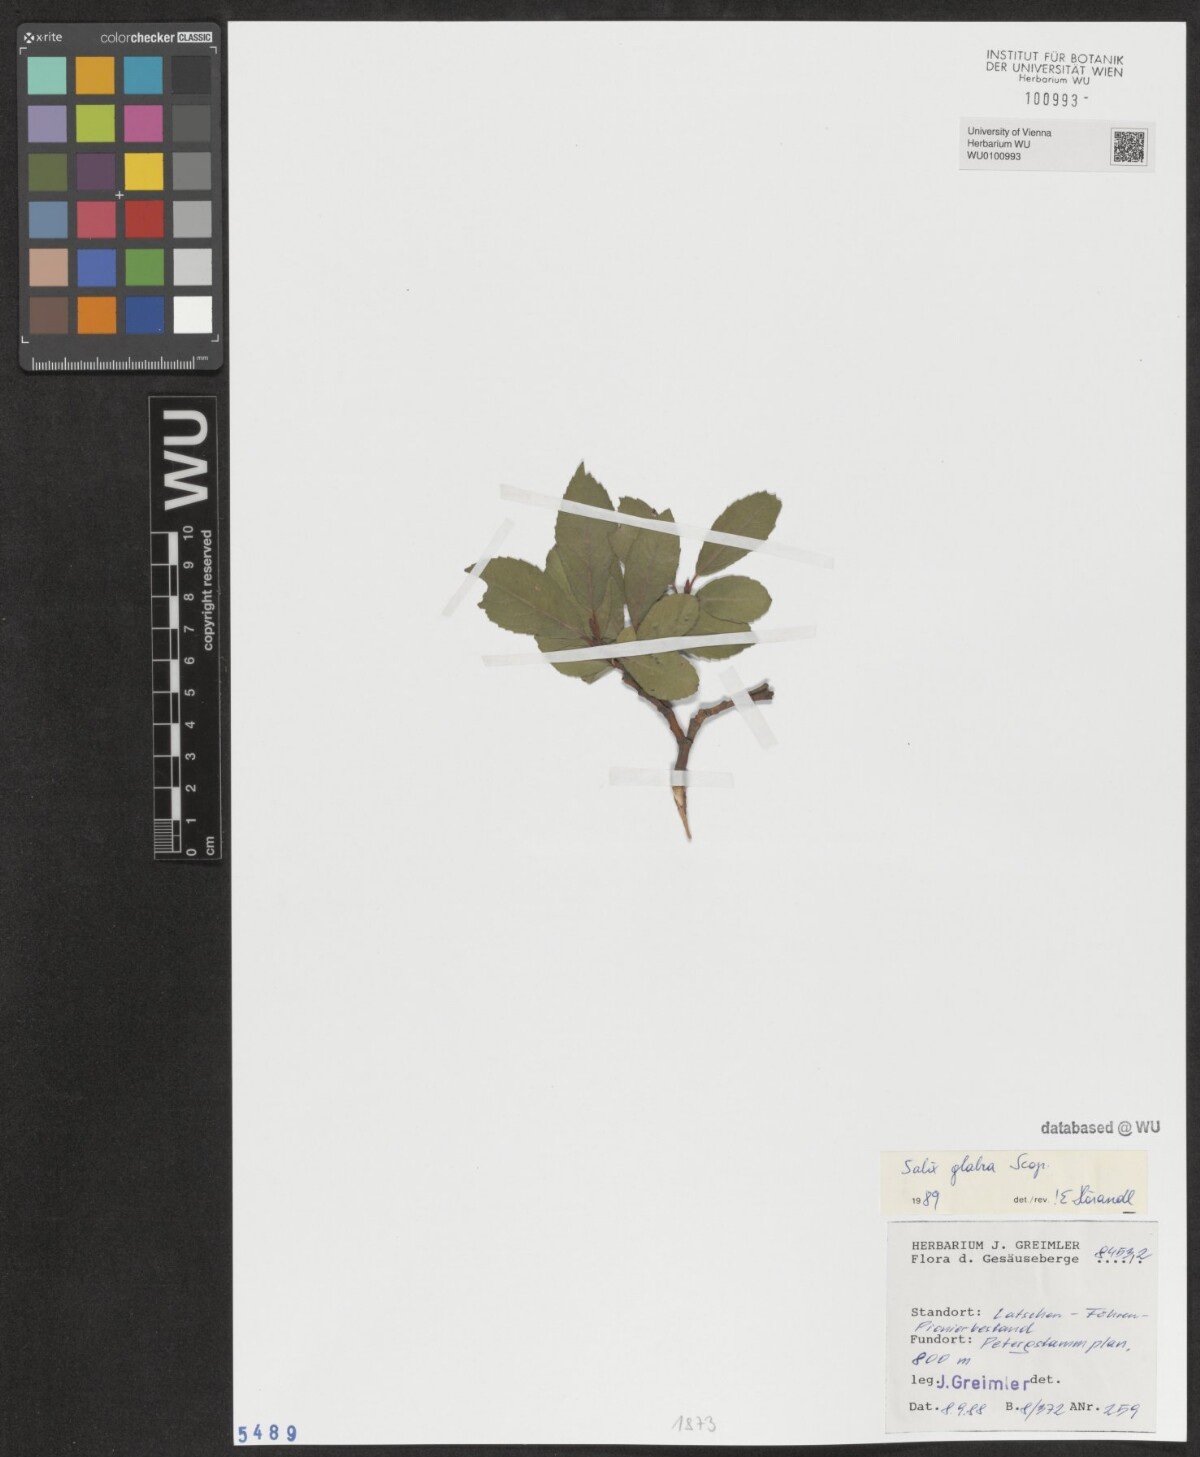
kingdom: Plantae
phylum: Tracheophyta
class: Magnoliopsida
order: Malpighiales
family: Salicaceae
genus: Salix
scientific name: Salix glabra
